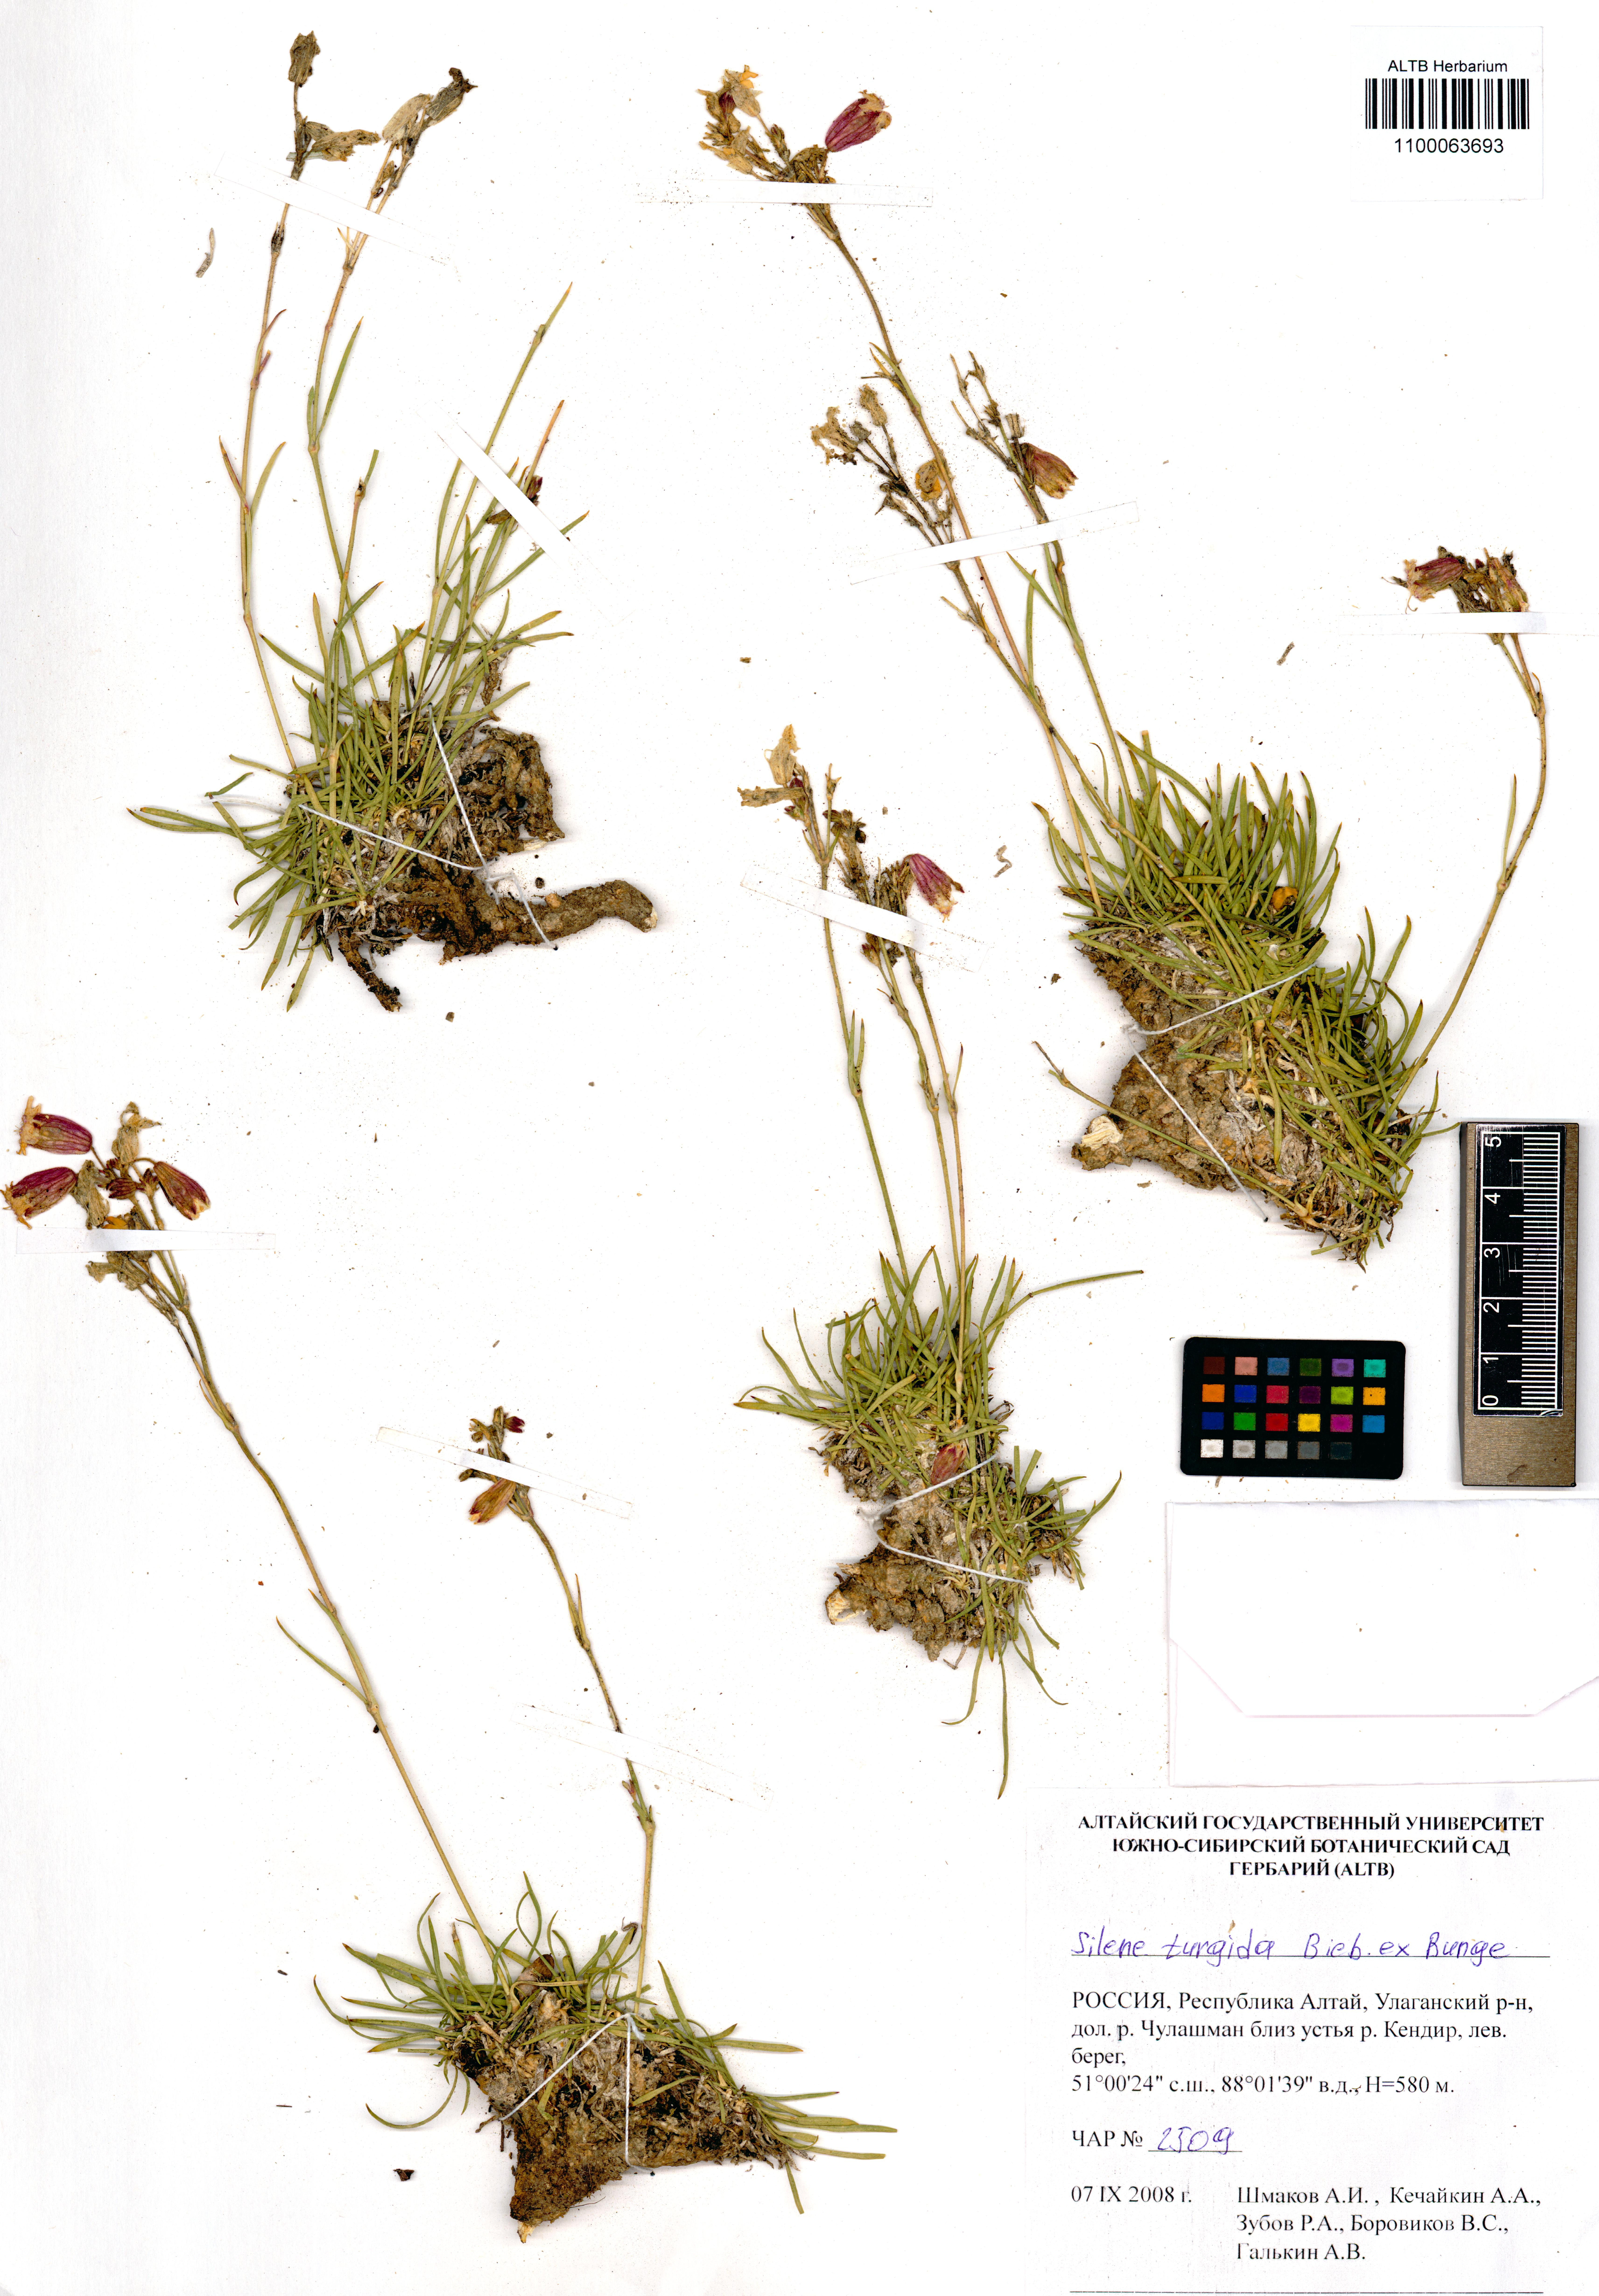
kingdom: Plantae
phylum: Tracheophyta
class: Magnoliopsida
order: Caryophyllales
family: Caryophyllaceae
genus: Silene
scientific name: Silene turgida
